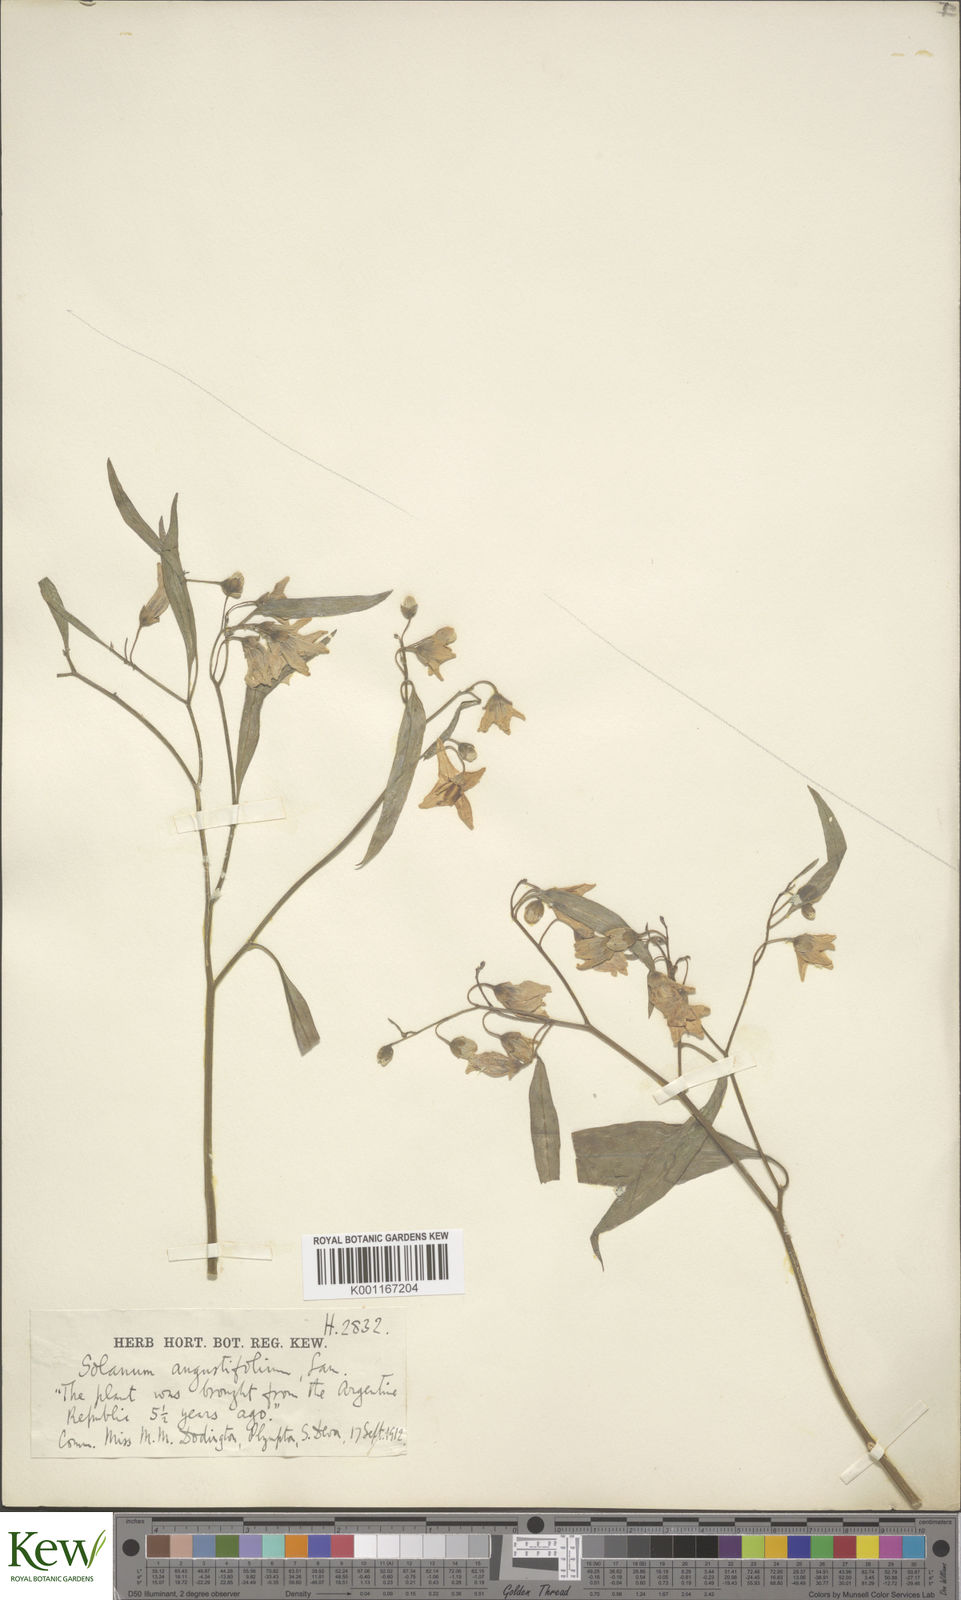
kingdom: Plantae
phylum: Tracheophyta
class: Magnoliopsida
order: Solanales
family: Solanaceae
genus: Solanum
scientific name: Solanum amygdalifolium
